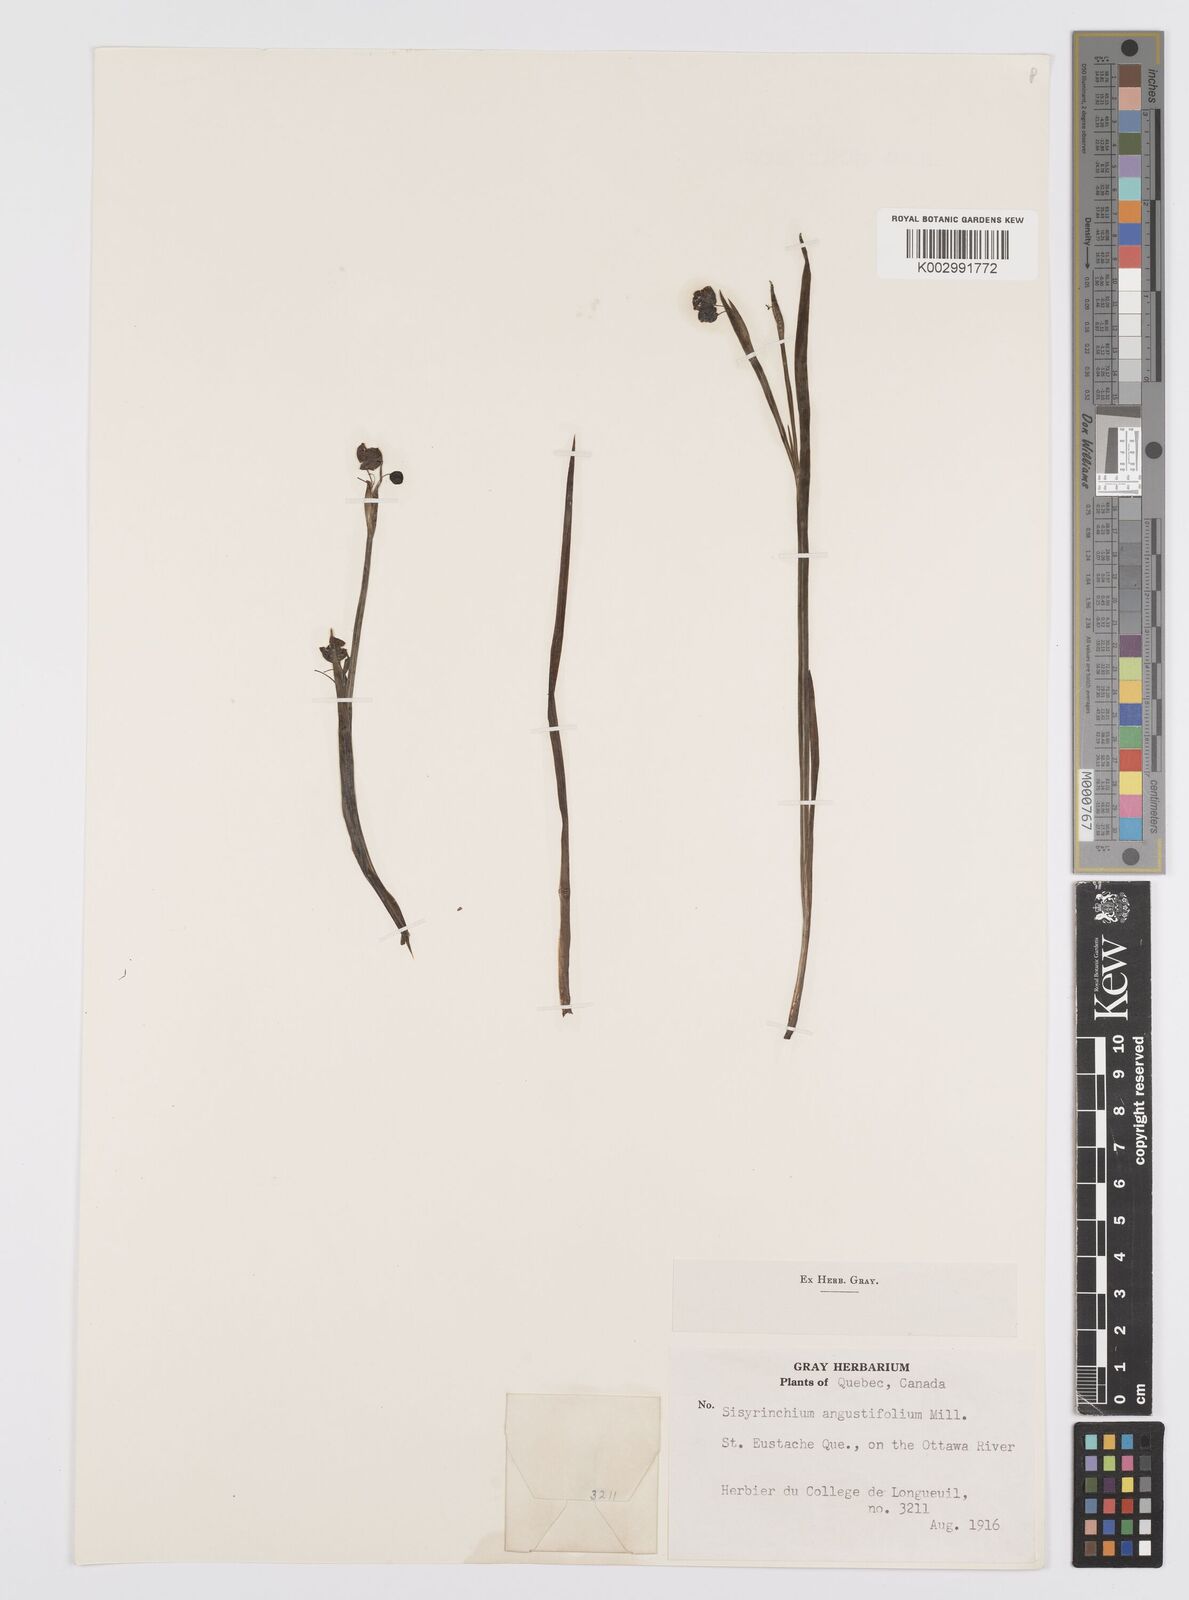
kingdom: Plantae
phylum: Tracheophyta
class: Liliopsida
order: Asparagales
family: Iridaceae
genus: Sisyrinchium
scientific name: Sisyrinchium angustifolium
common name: Narrow-leaf blue-eyed-grass
